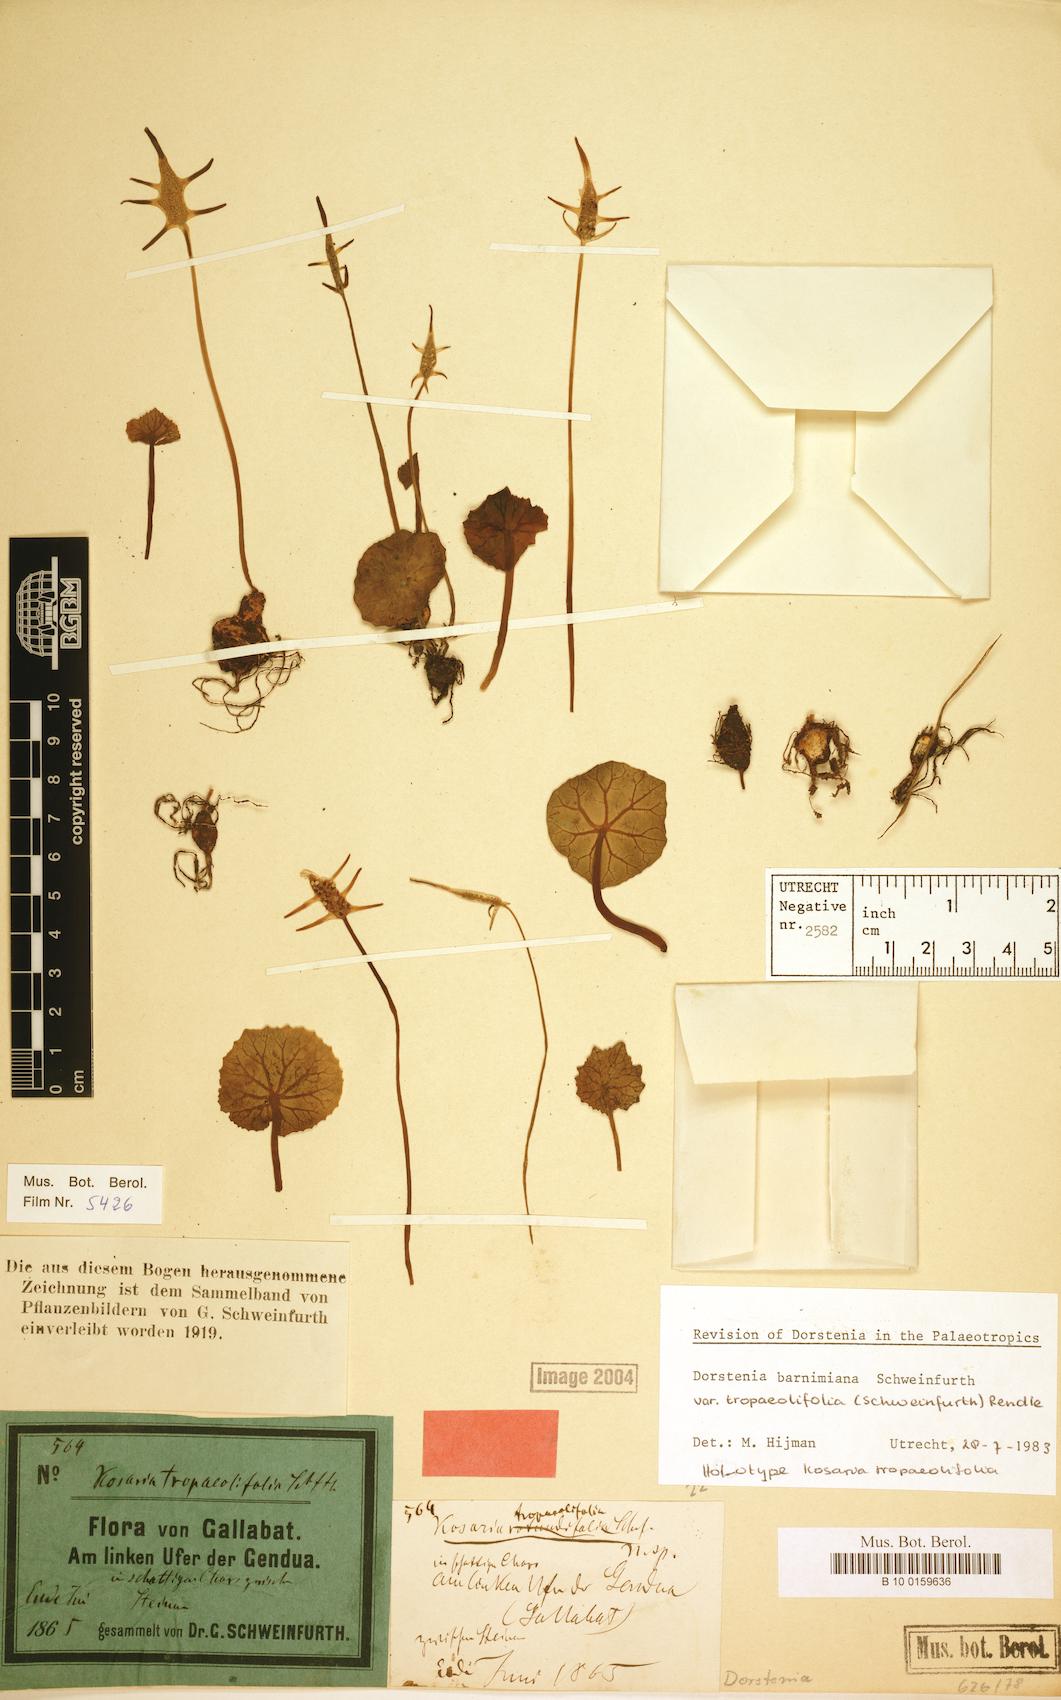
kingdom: Plantae
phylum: Tracheophyta
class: Magnoliopsida
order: Rosales
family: Moraceae
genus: Dorstenia
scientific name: Dorstenia barnimiana
